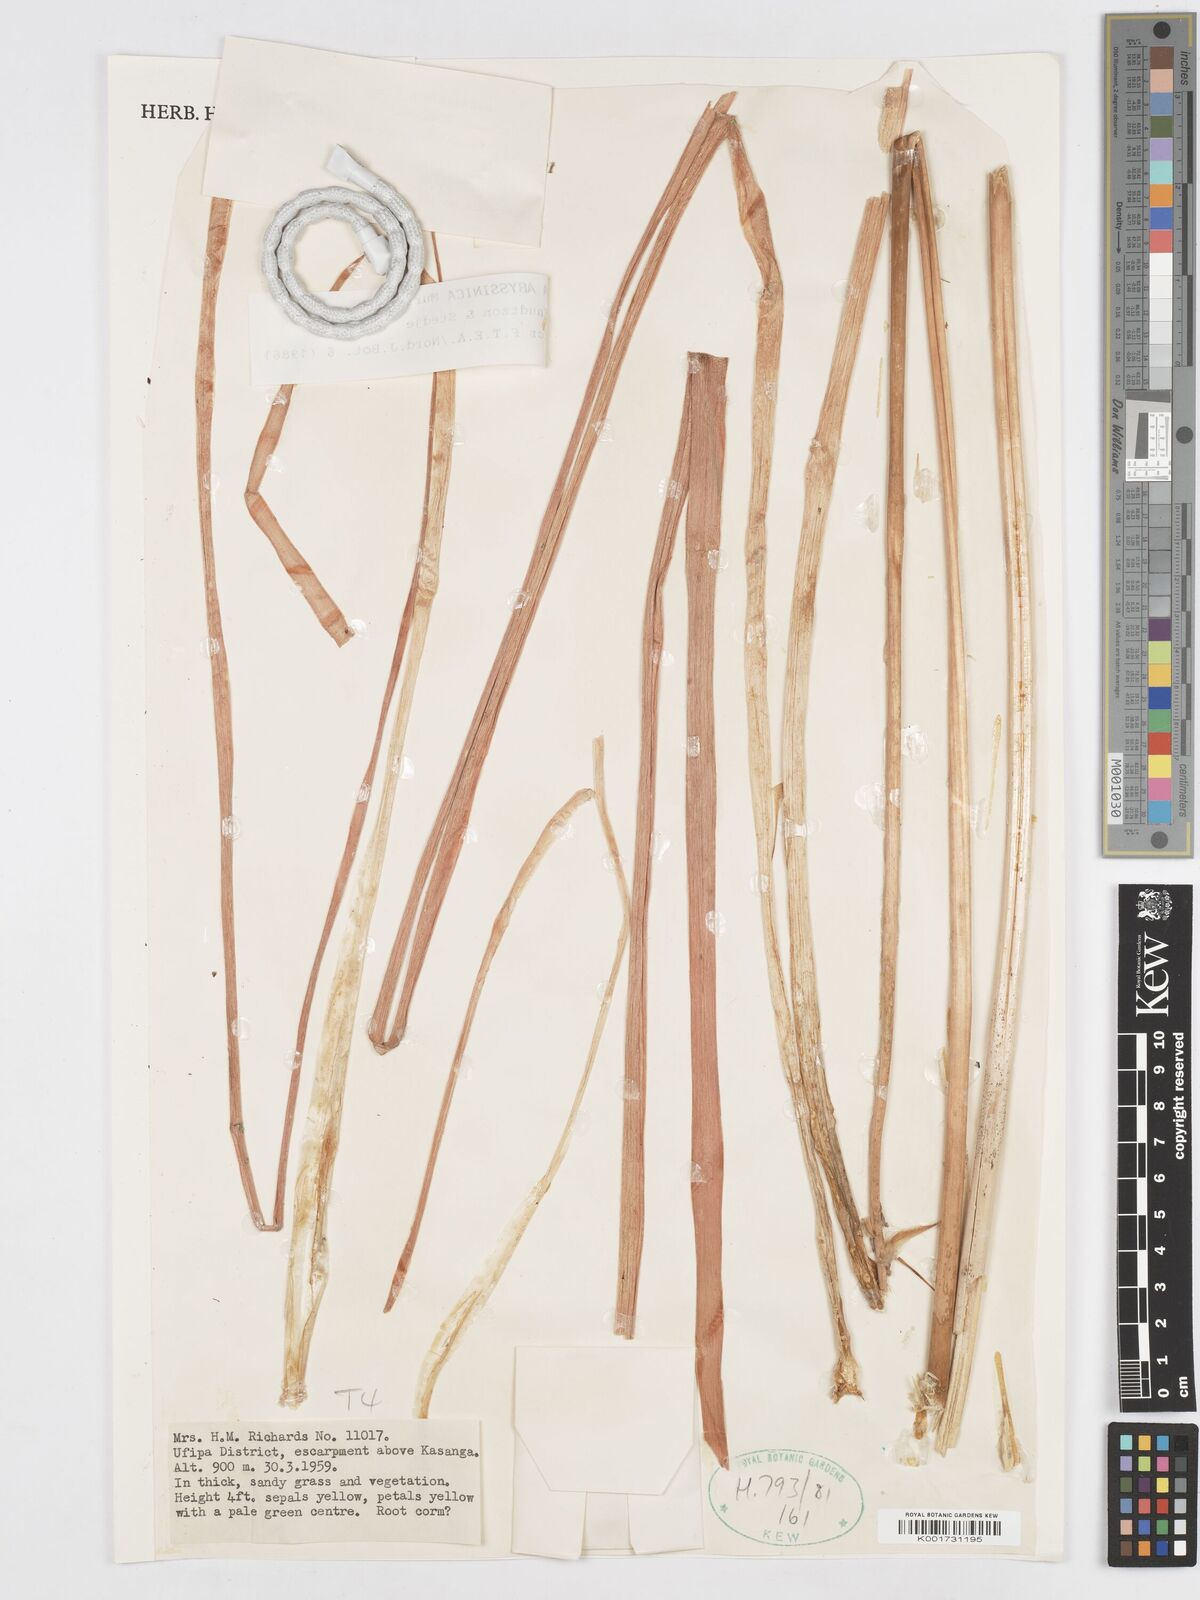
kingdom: Plantae
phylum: Tracheophyta
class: Liliopsida
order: Asparagales
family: Asparagaceae
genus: Albuca
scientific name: Albuca abyssinica
